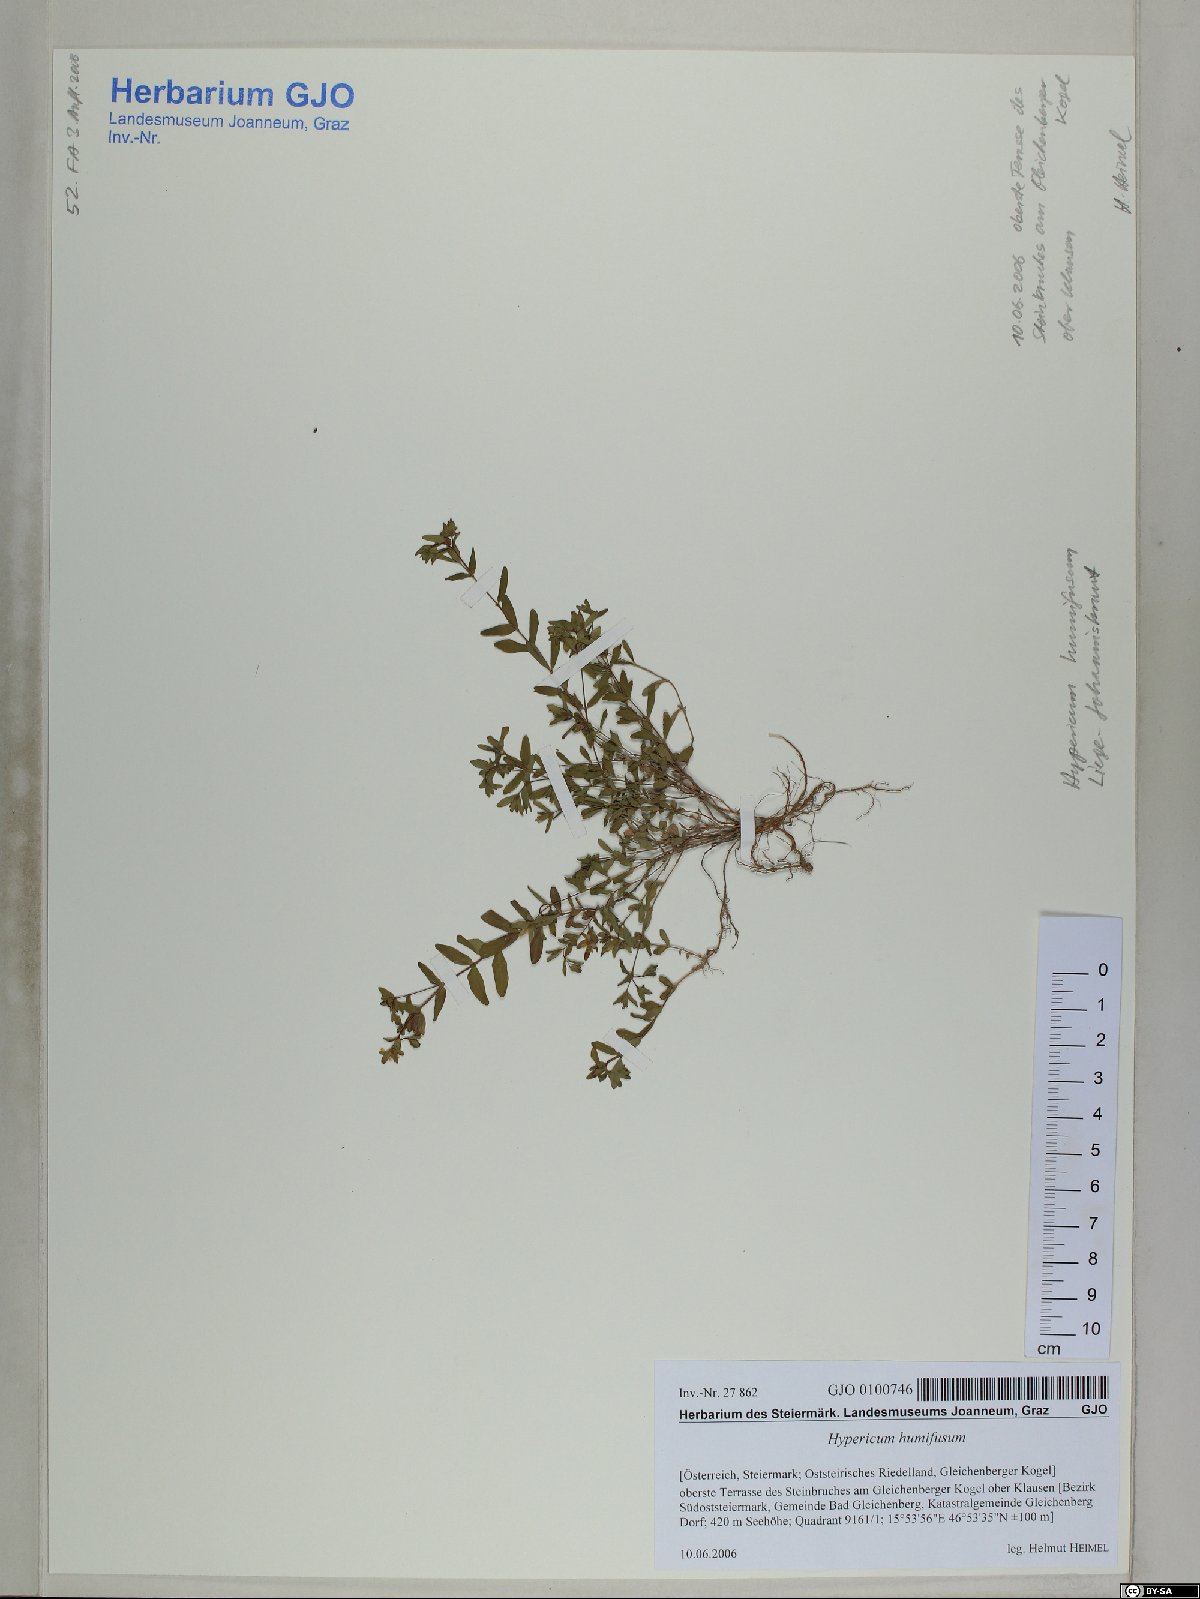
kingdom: Plantae
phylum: Tracheophyta
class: Magnoliopsida
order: Malpighiales
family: Hypericaceae
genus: Hypericum
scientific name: Hypericum humifusum
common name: Trailing st. john's-wort
